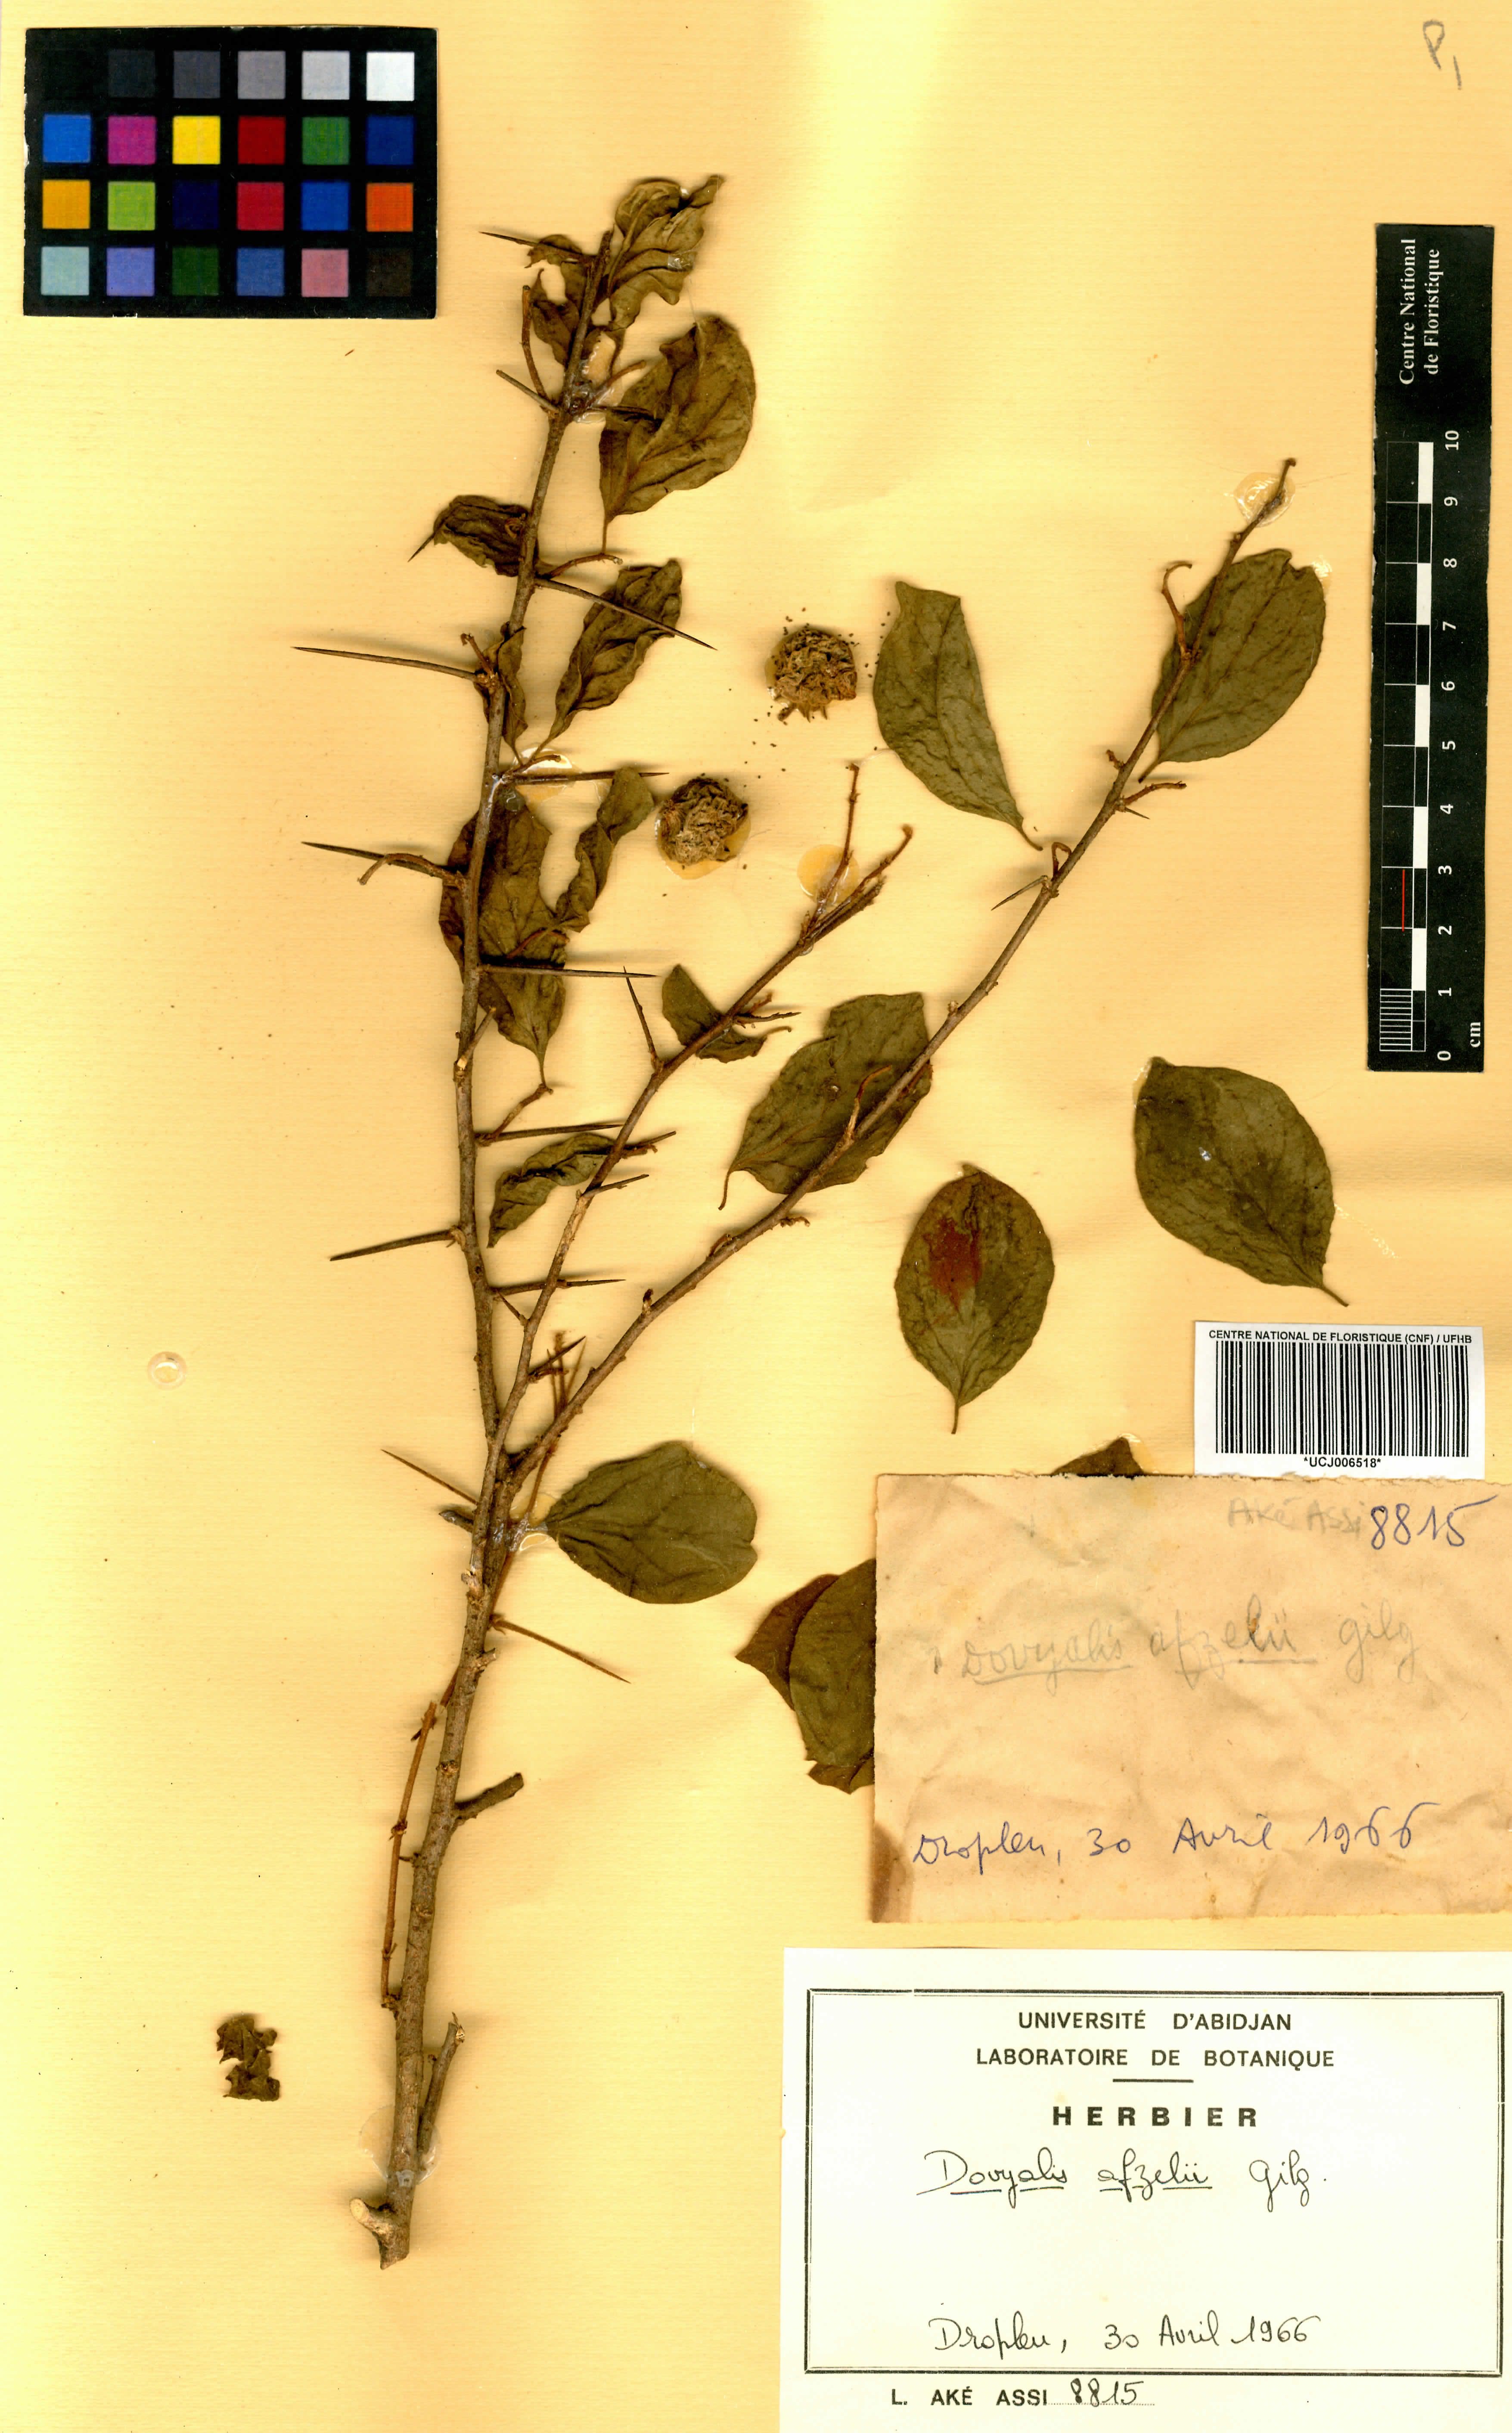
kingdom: Plantae
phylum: Tracheophyta
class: Magnoliopsida
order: Malpighiales
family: Salicaceae
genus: Dovyalis
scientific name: Dovyalis zenkeri
